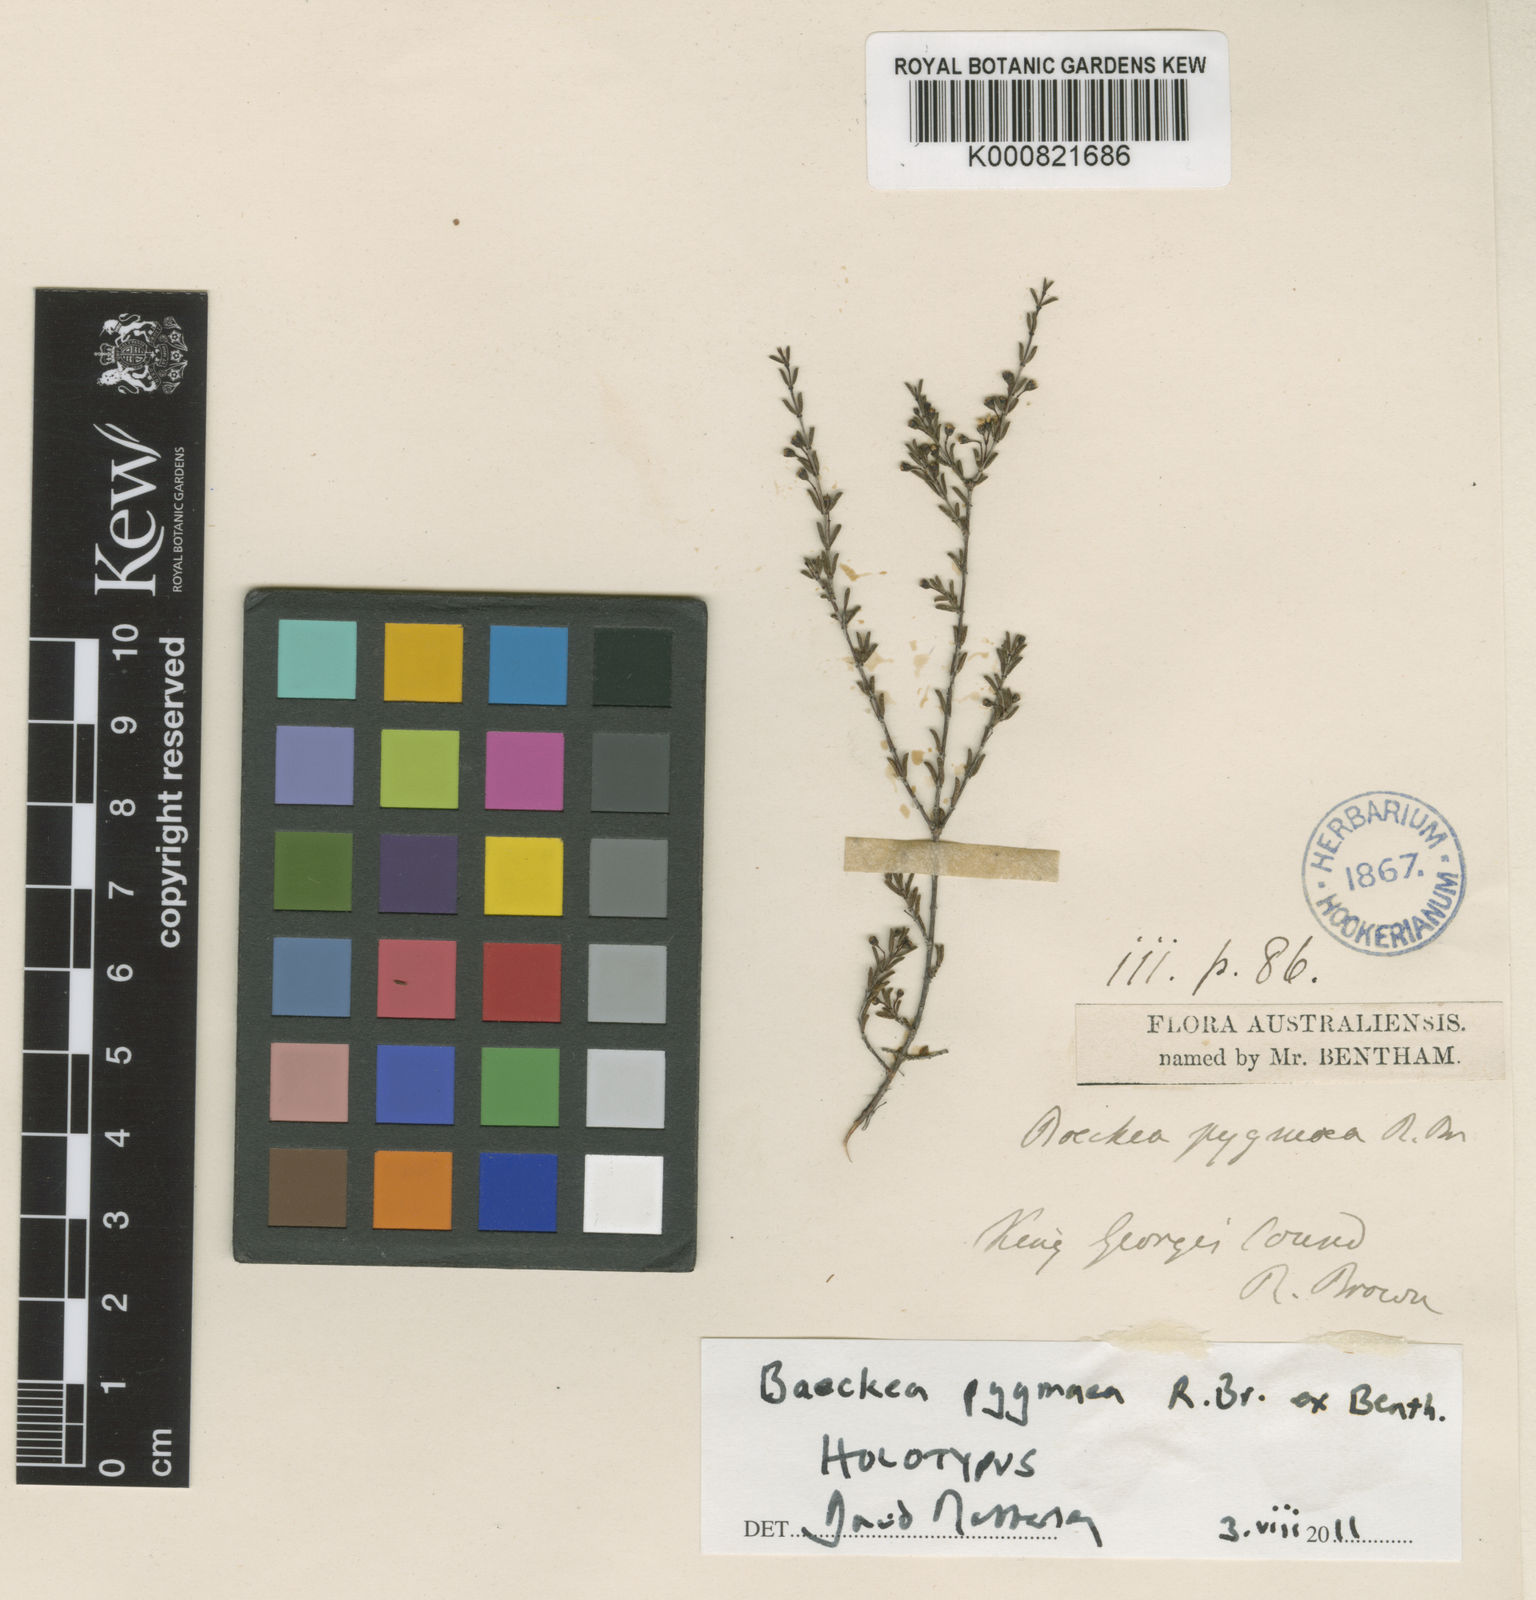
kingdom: Plantae
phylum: Tracheophyta
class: Magnoliopsida
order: Myrtales
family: Myrtaceae
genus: Austrobaeckea
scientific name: Austrobaeckea pygmaea
